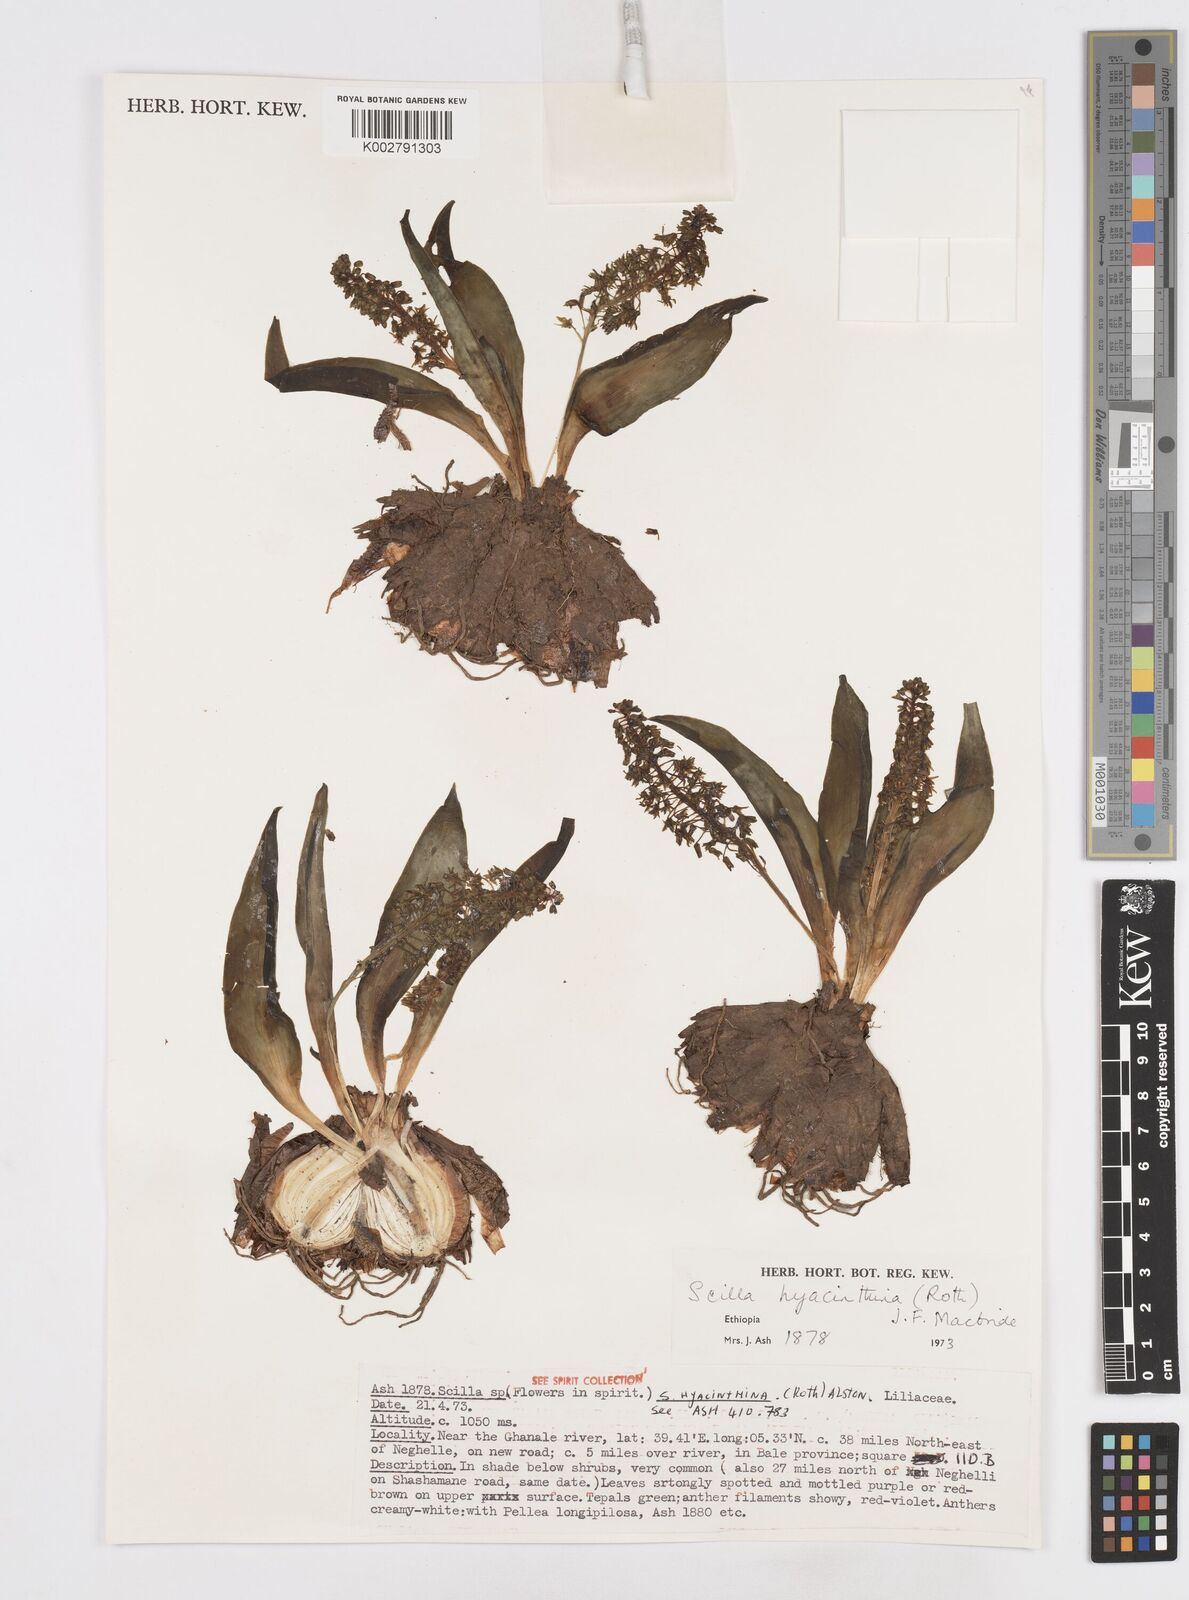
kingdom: Plantae
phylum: Tracheophyta
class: Liliopsida
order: Asparagales
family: Asparagaceae
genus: Scilla
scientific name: Scilla
